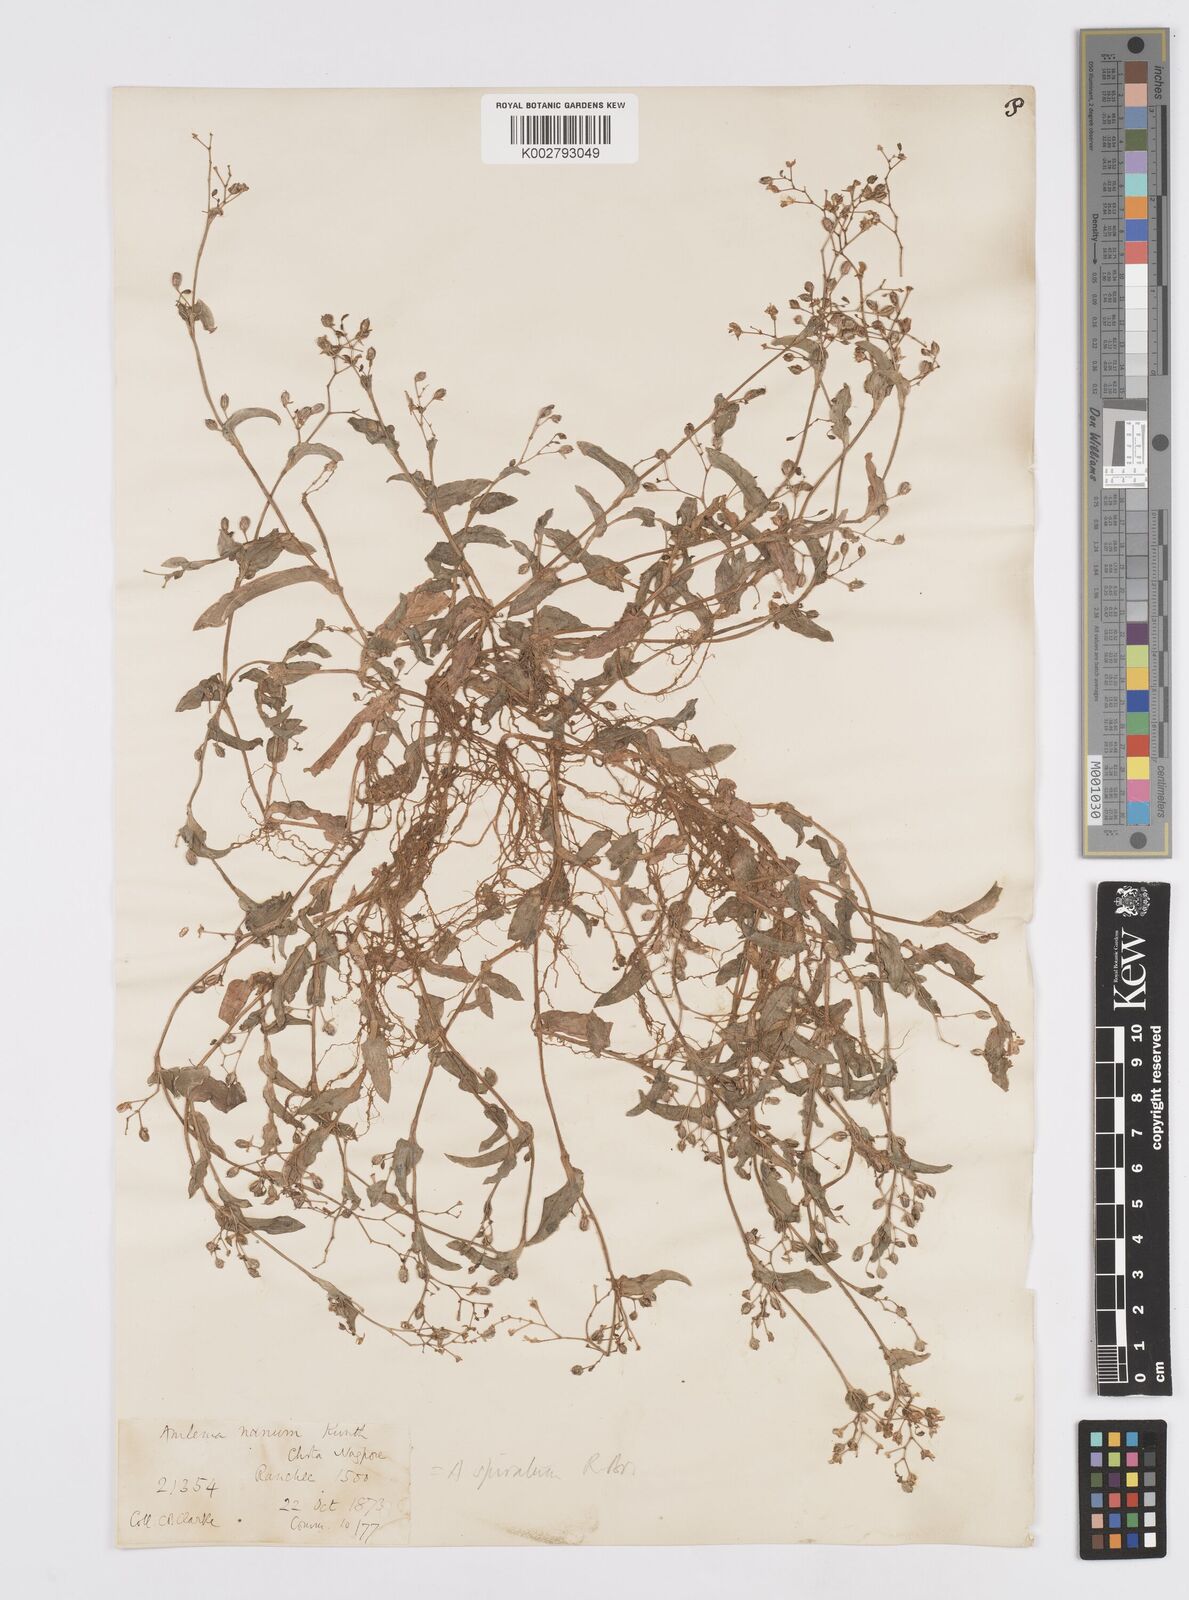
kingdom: Plantae
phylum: Tracheophyta
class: Liliopsida
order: Commelinales
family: Commelinaceae
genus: Murdannia
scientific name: Murdannia spirata
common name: Asiatic dewflower
